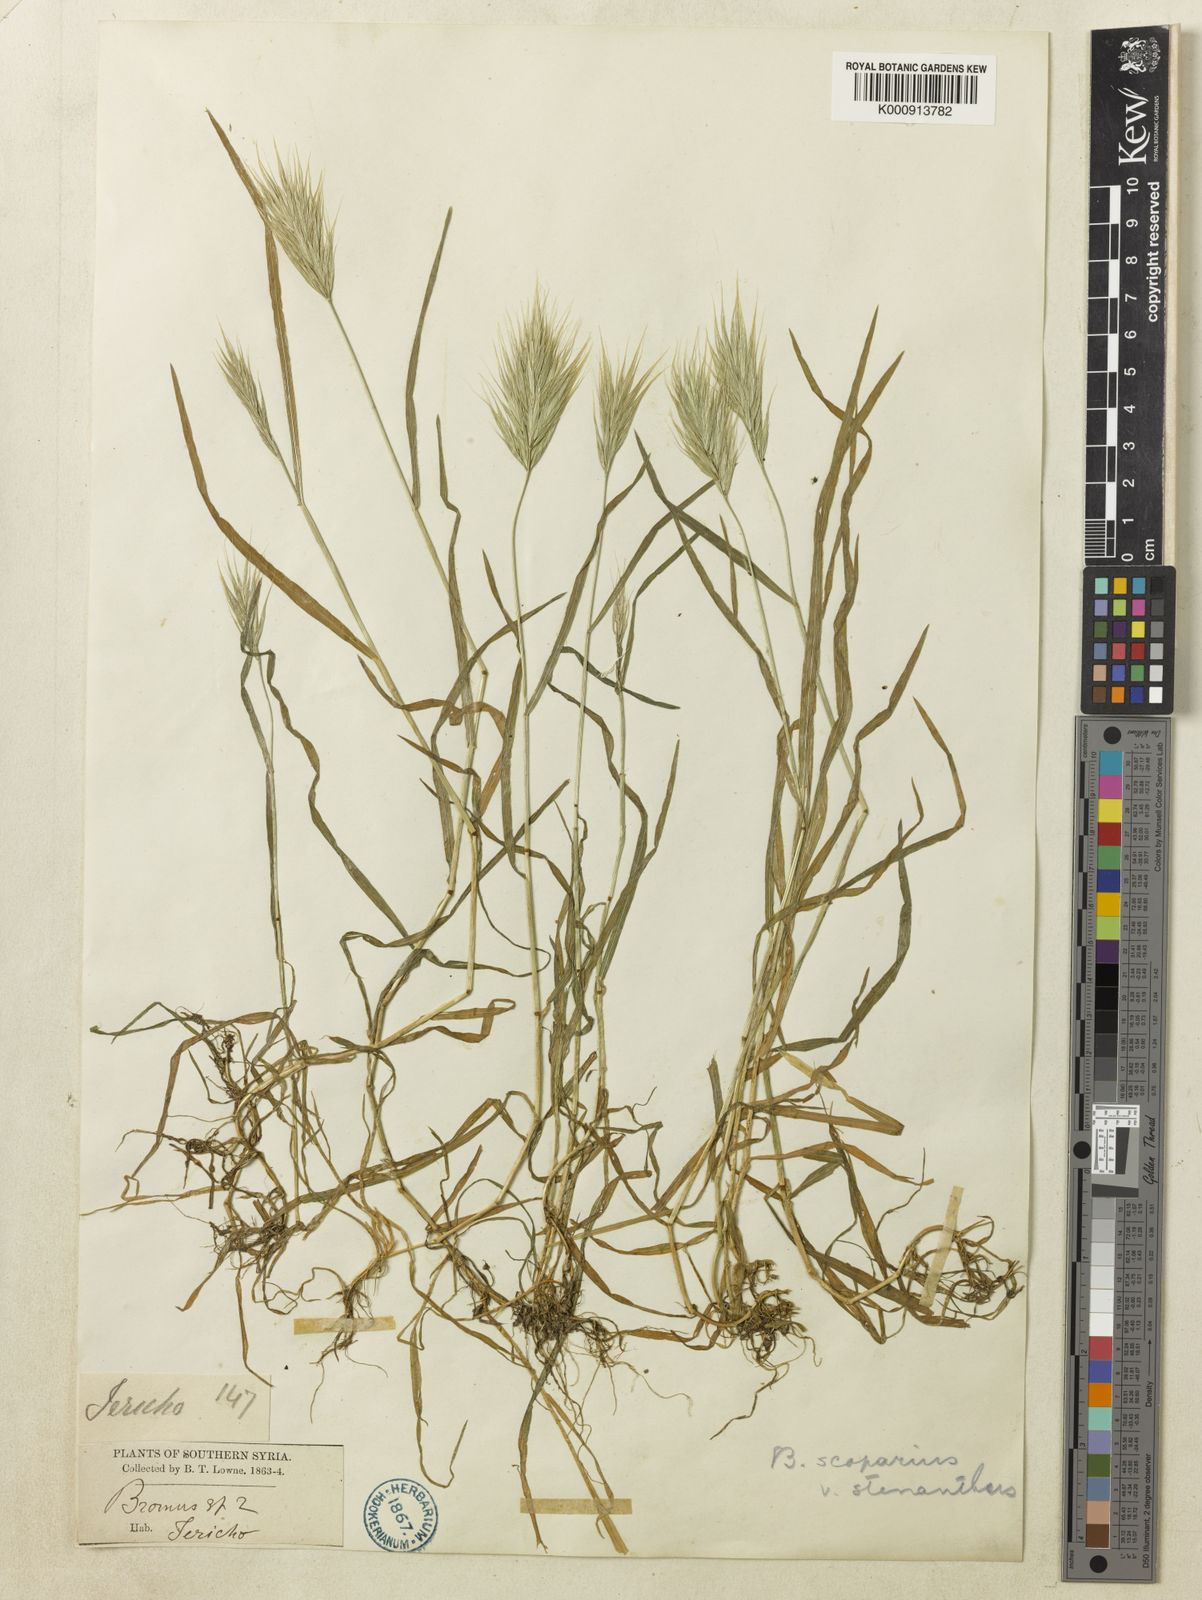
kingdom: Plantae
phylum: Tracheophyta
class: Liliopsida
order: Poales
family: Poaceae
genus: Bromus
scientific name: Bromus scoparius
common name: Broom brome
